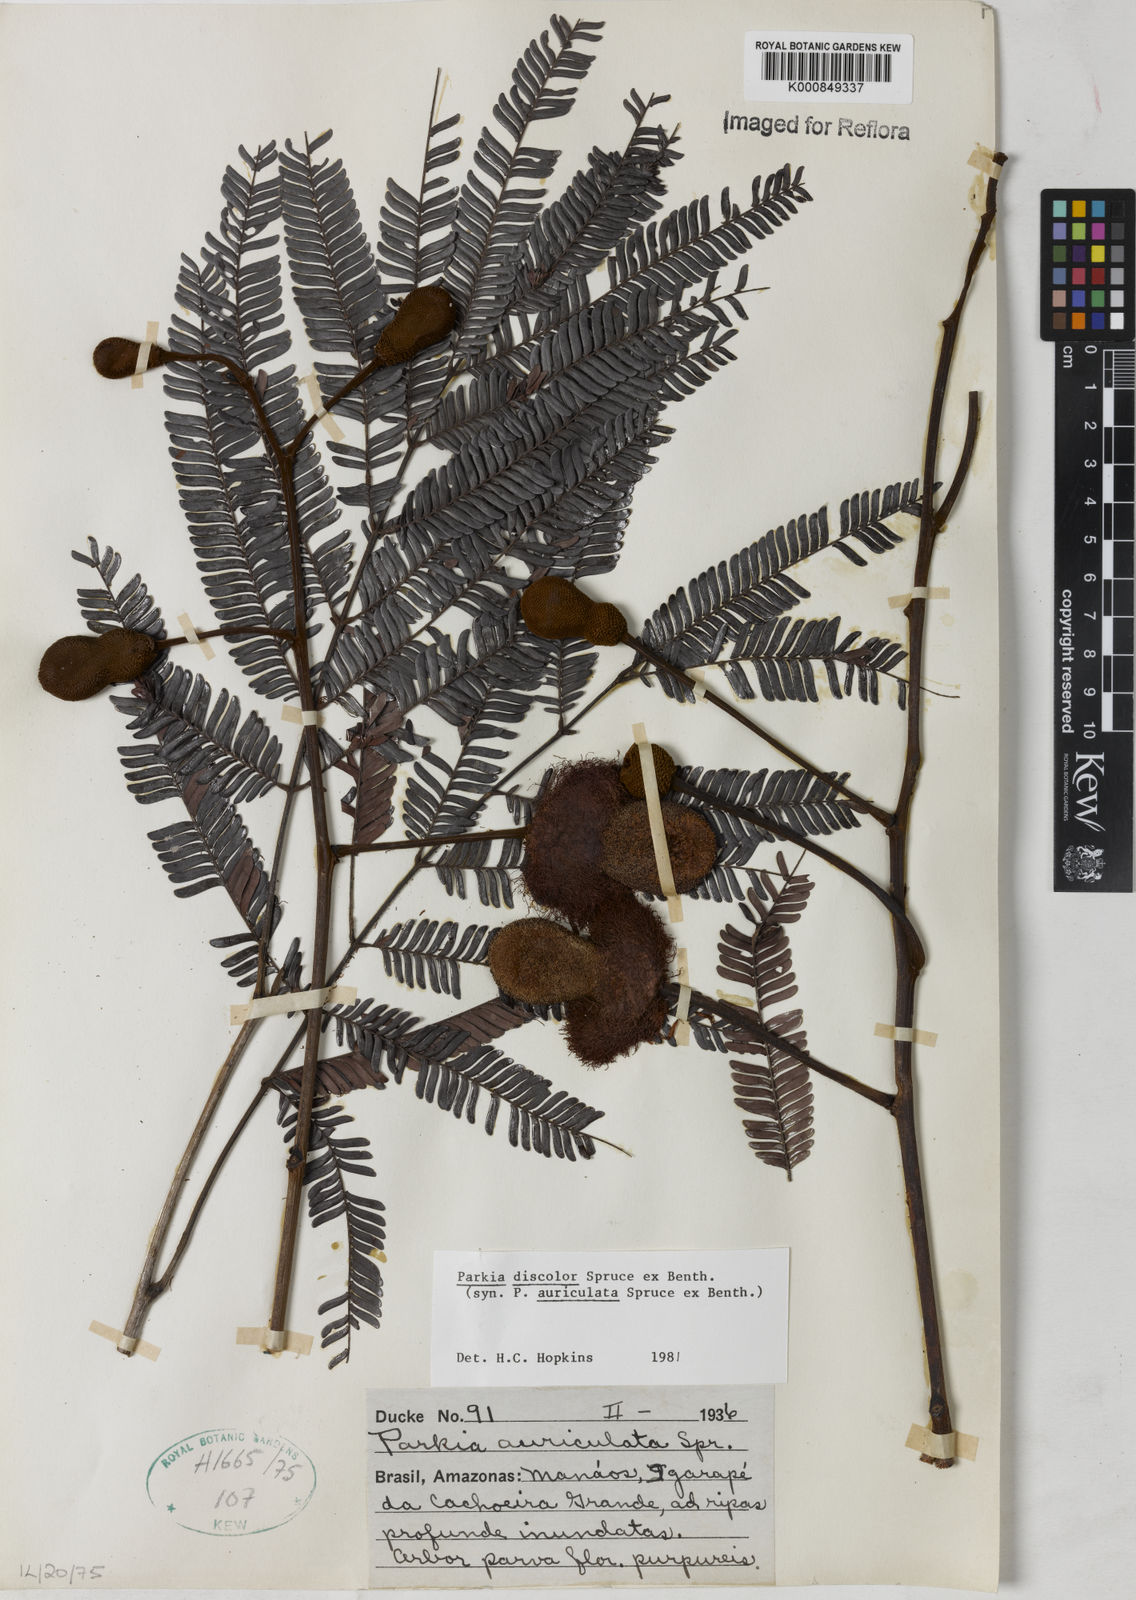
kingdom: Plantae
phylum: Tracheophyta
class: Magnoliopsida
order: Fabales
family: Fabaceae
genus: Parkia
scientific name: Parkia discolor
